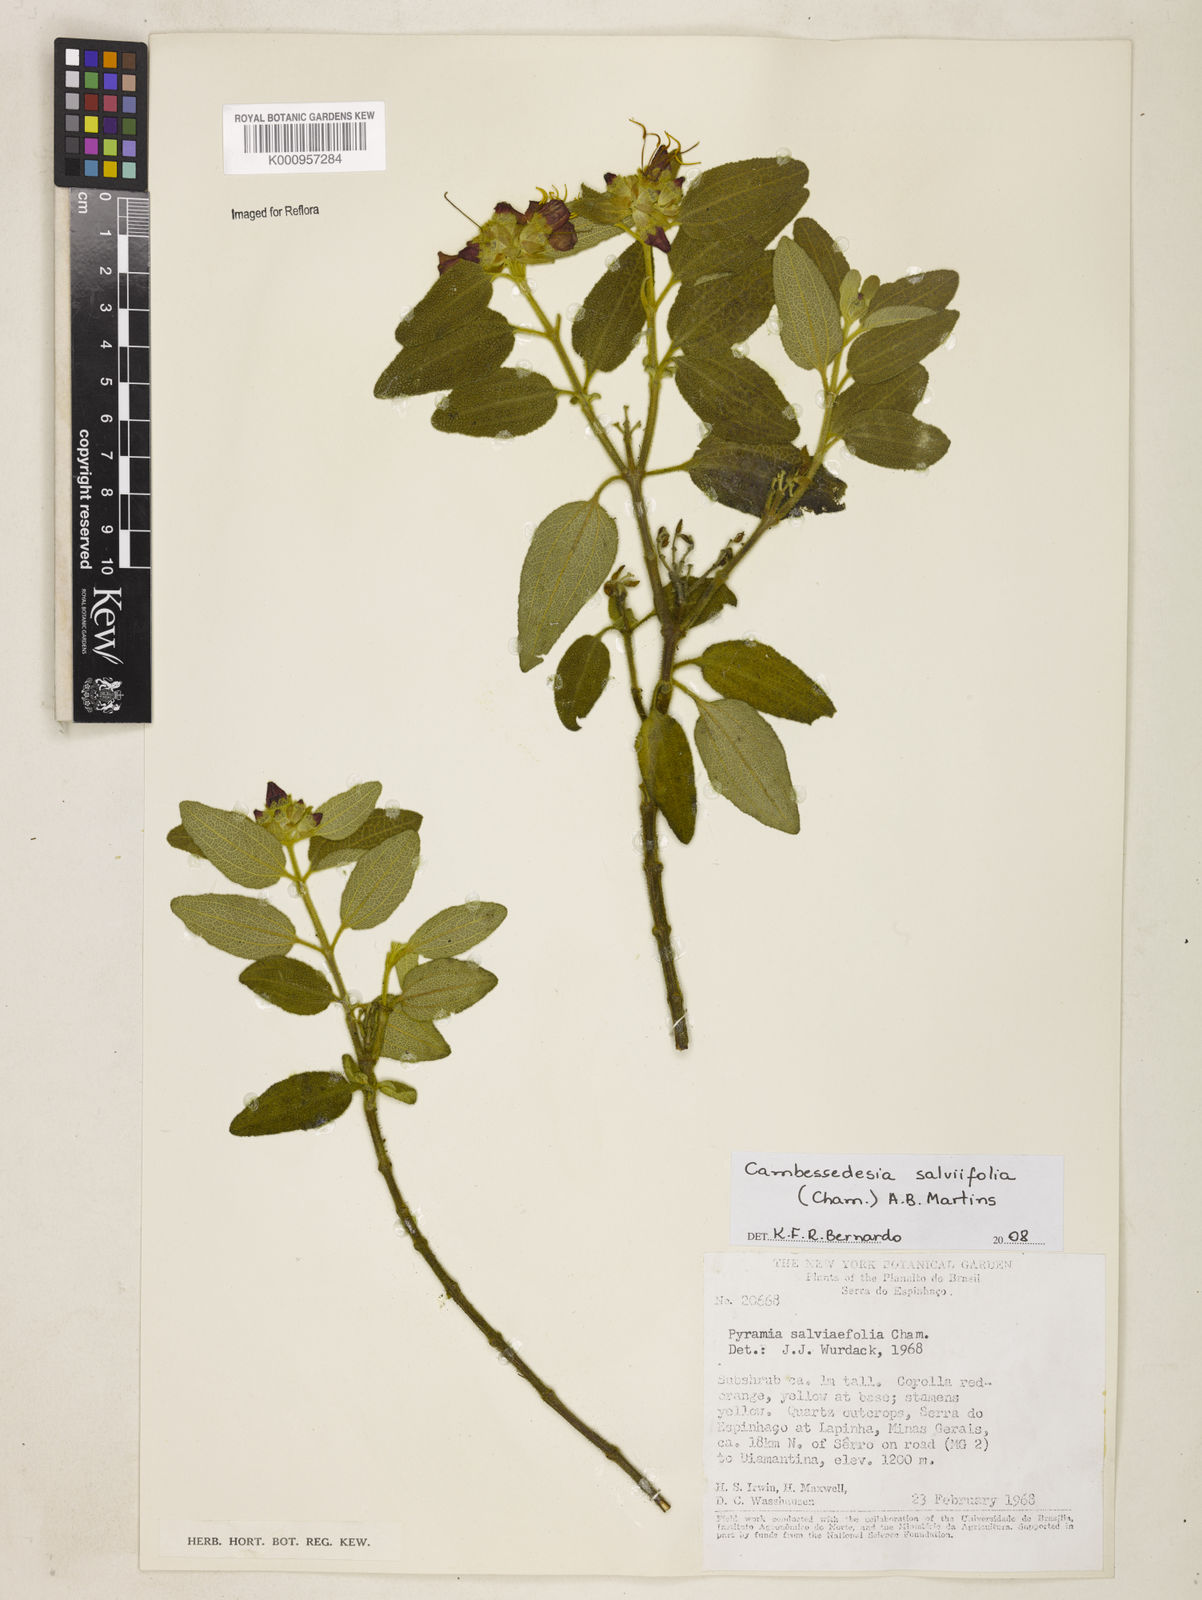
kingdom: Plantae
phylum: Tracheophyta
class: Magnoliopsida
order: Myrtales
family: Melastomataceae
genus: Cambessedesia
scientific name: Cambessedesia
